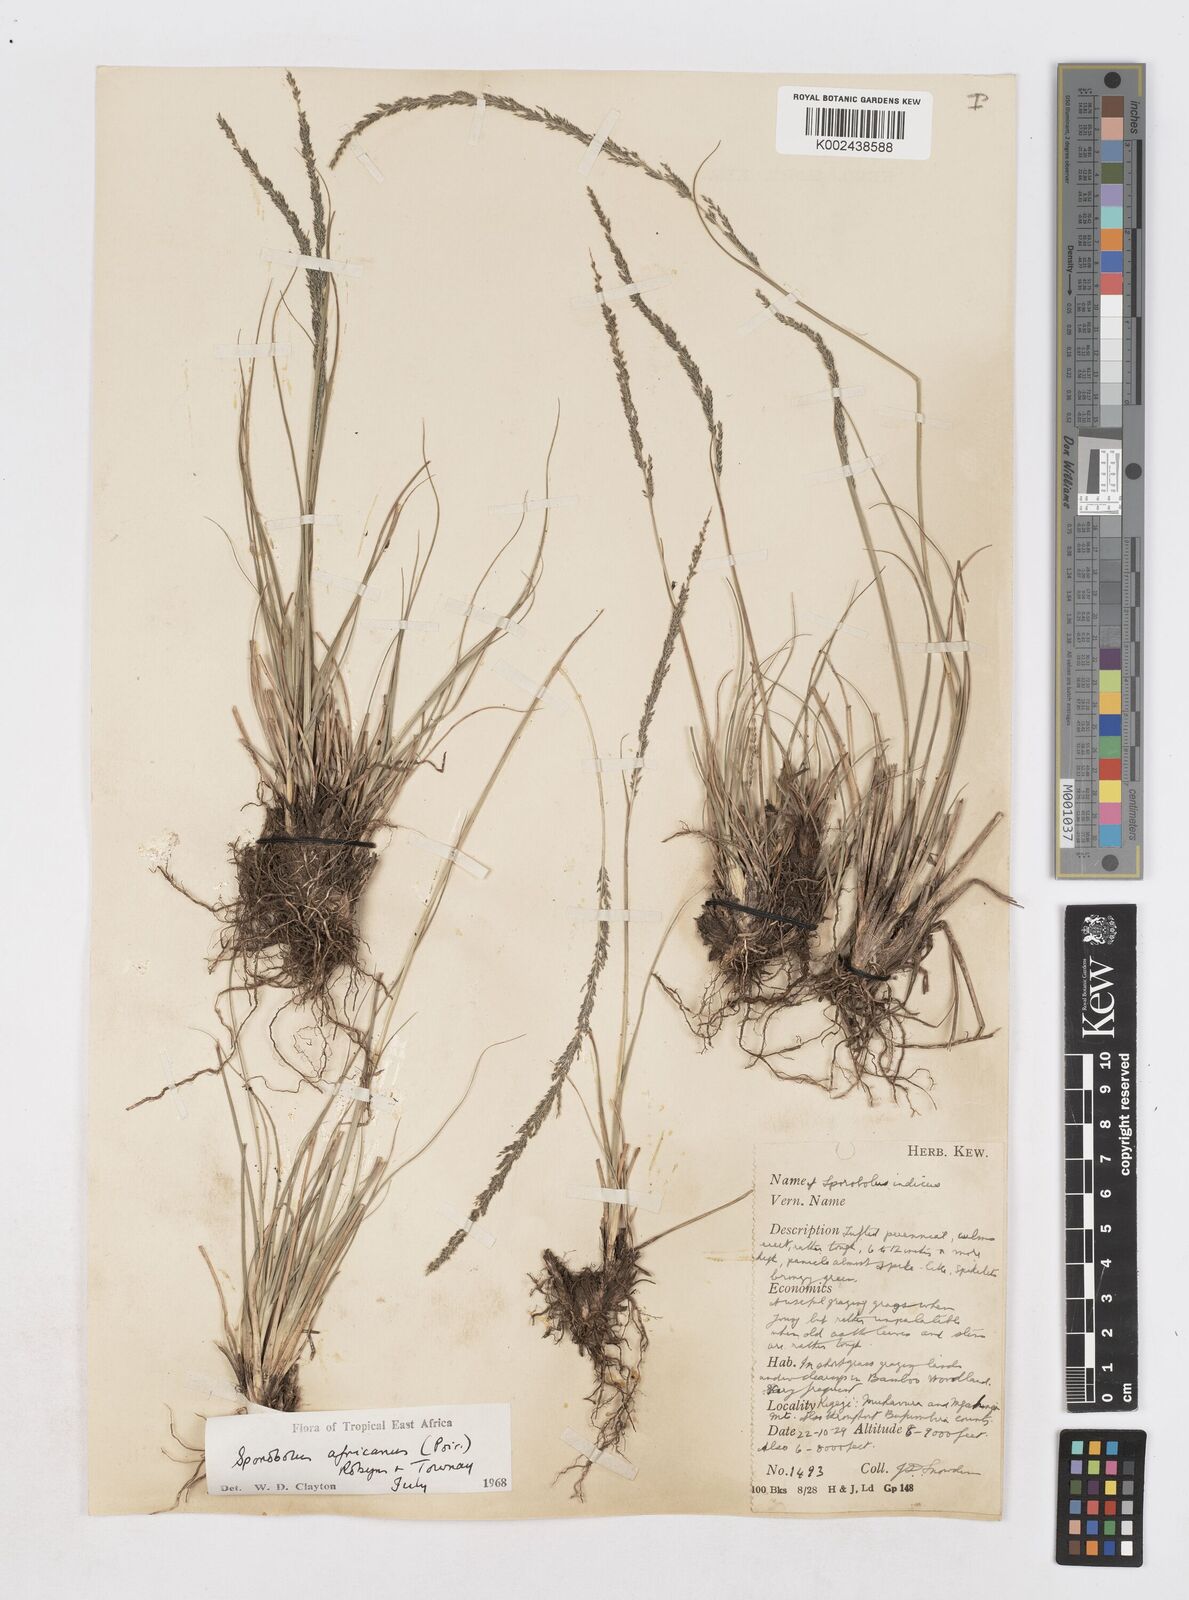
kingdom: Plantae
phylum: Tracheophyta
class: Liliopsida
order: Poales
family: Poaceae
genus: Sporobolus
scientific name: Sporobolus africanus
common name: African dropseed
